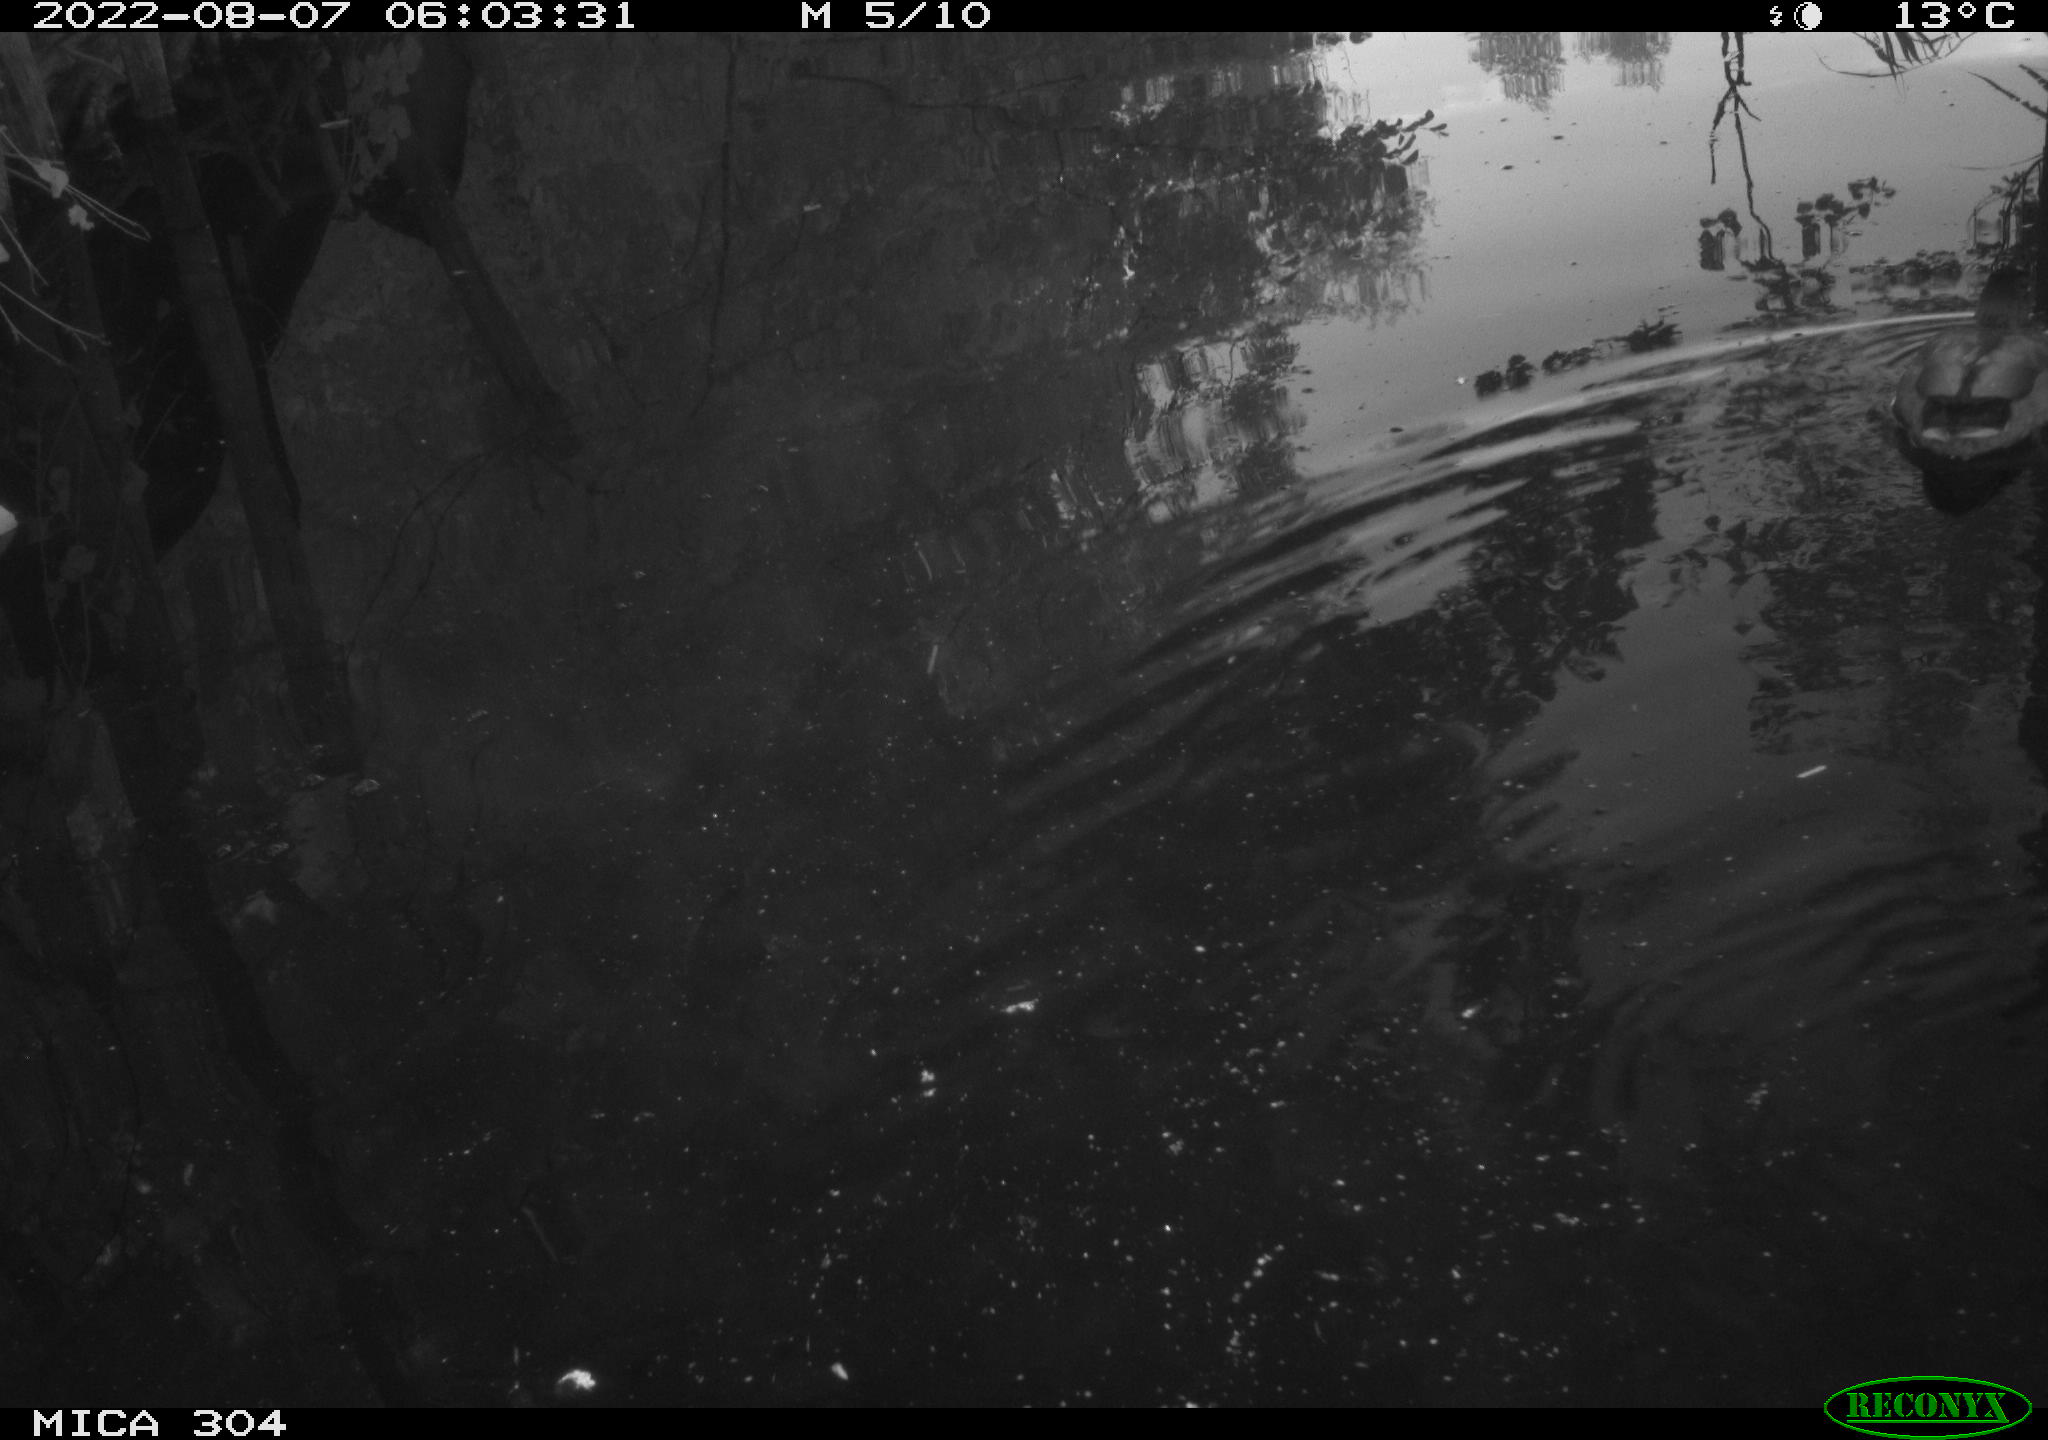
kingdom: Animalia
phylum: Chordata
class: Aves
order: Anseriformes
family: Anatidae
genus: Anas
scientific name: Anas platyrhynchos
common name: Mallard
